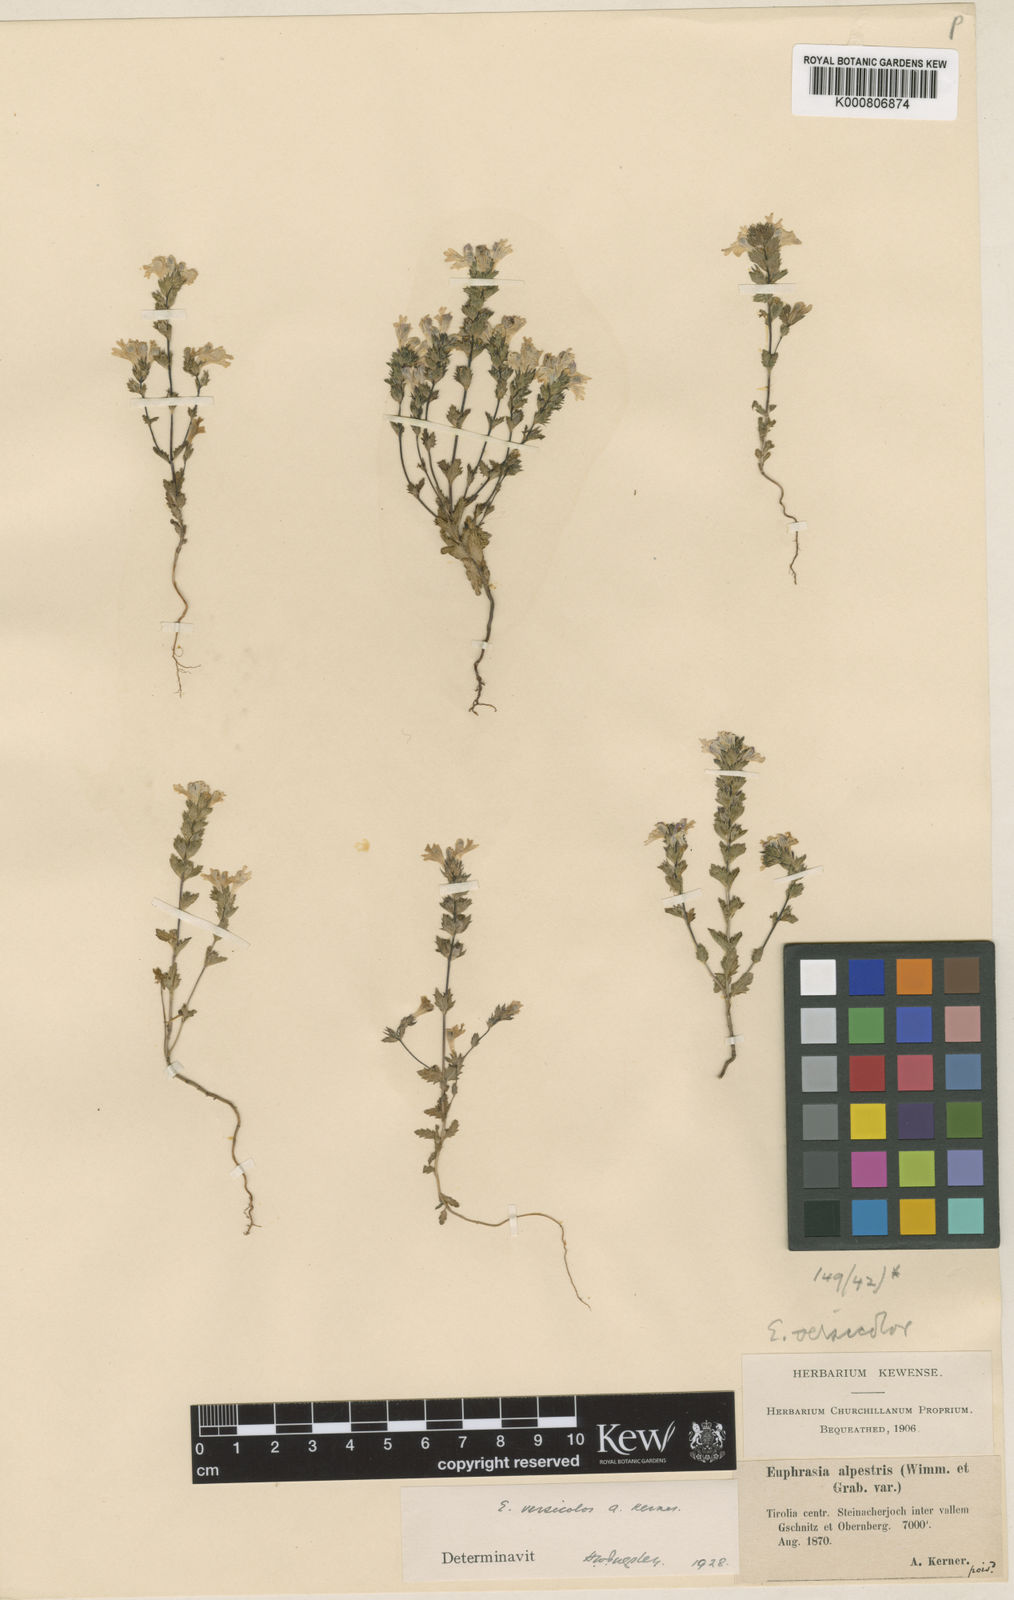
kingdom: Plantae
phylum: Tracheophyta
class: Magnoliopsida
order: Lamiales
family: Orobanchaceae
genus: Euphrasia
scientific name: Euphrasia picta
